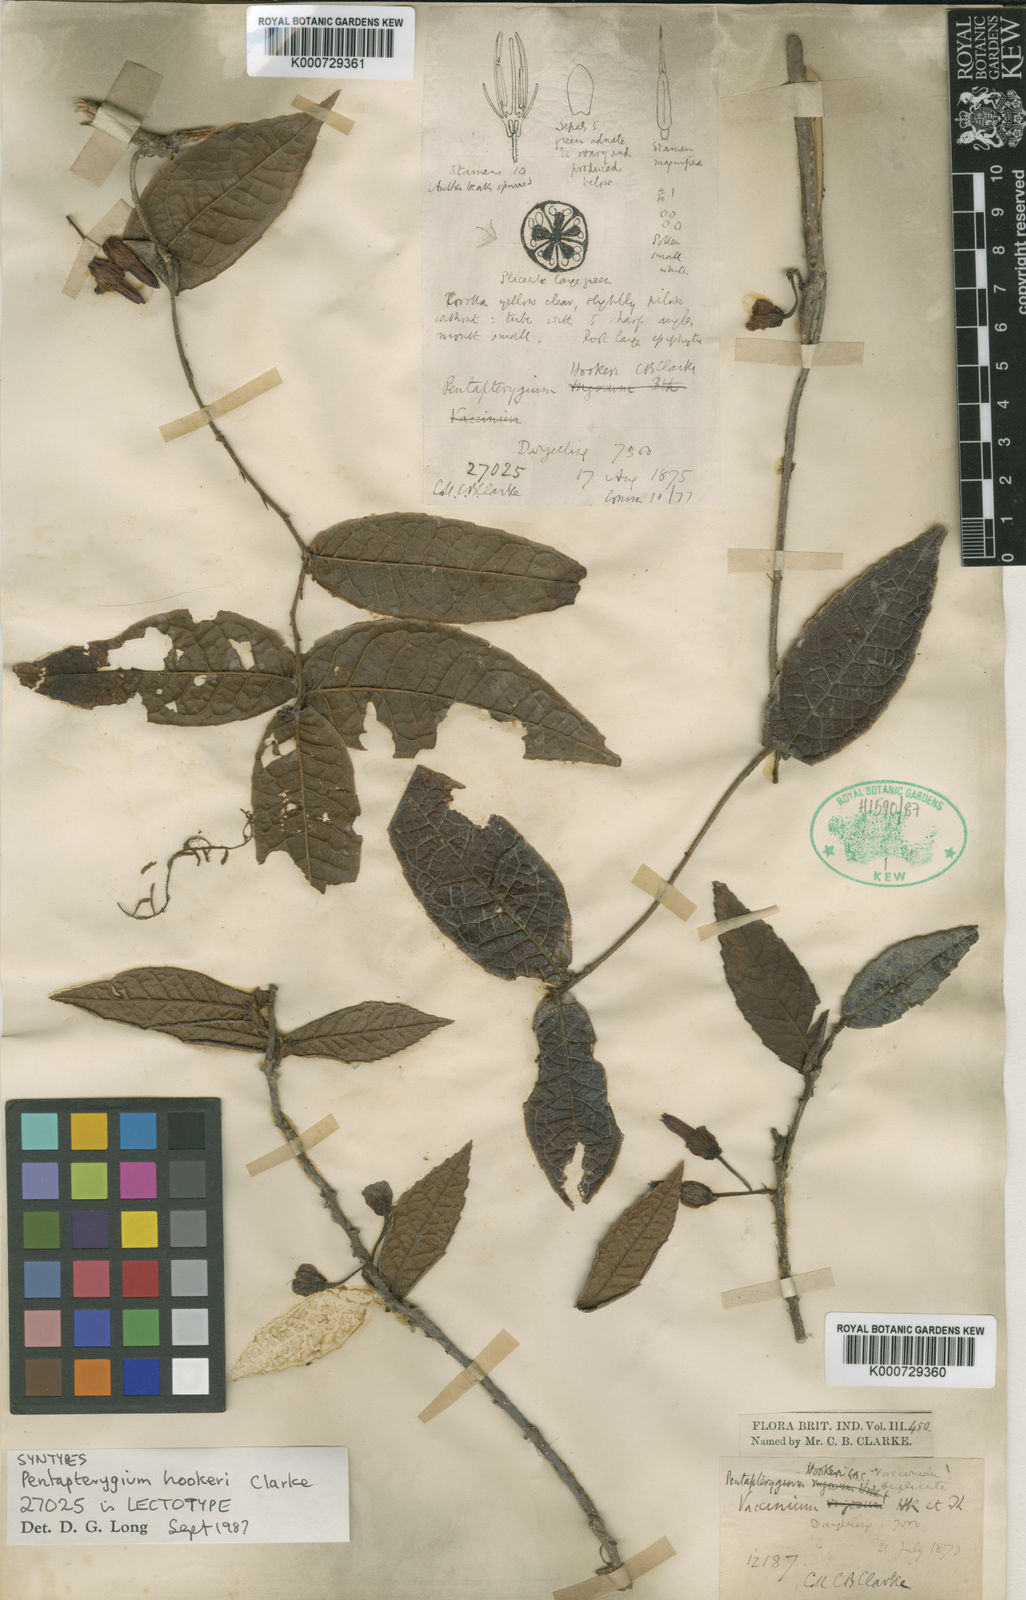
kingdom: Plantae
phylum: Tracheophyta
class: Magnoliopsida
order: Ericales
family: Ericaceae
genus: Agapetes
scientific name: Agapetes incurvata
